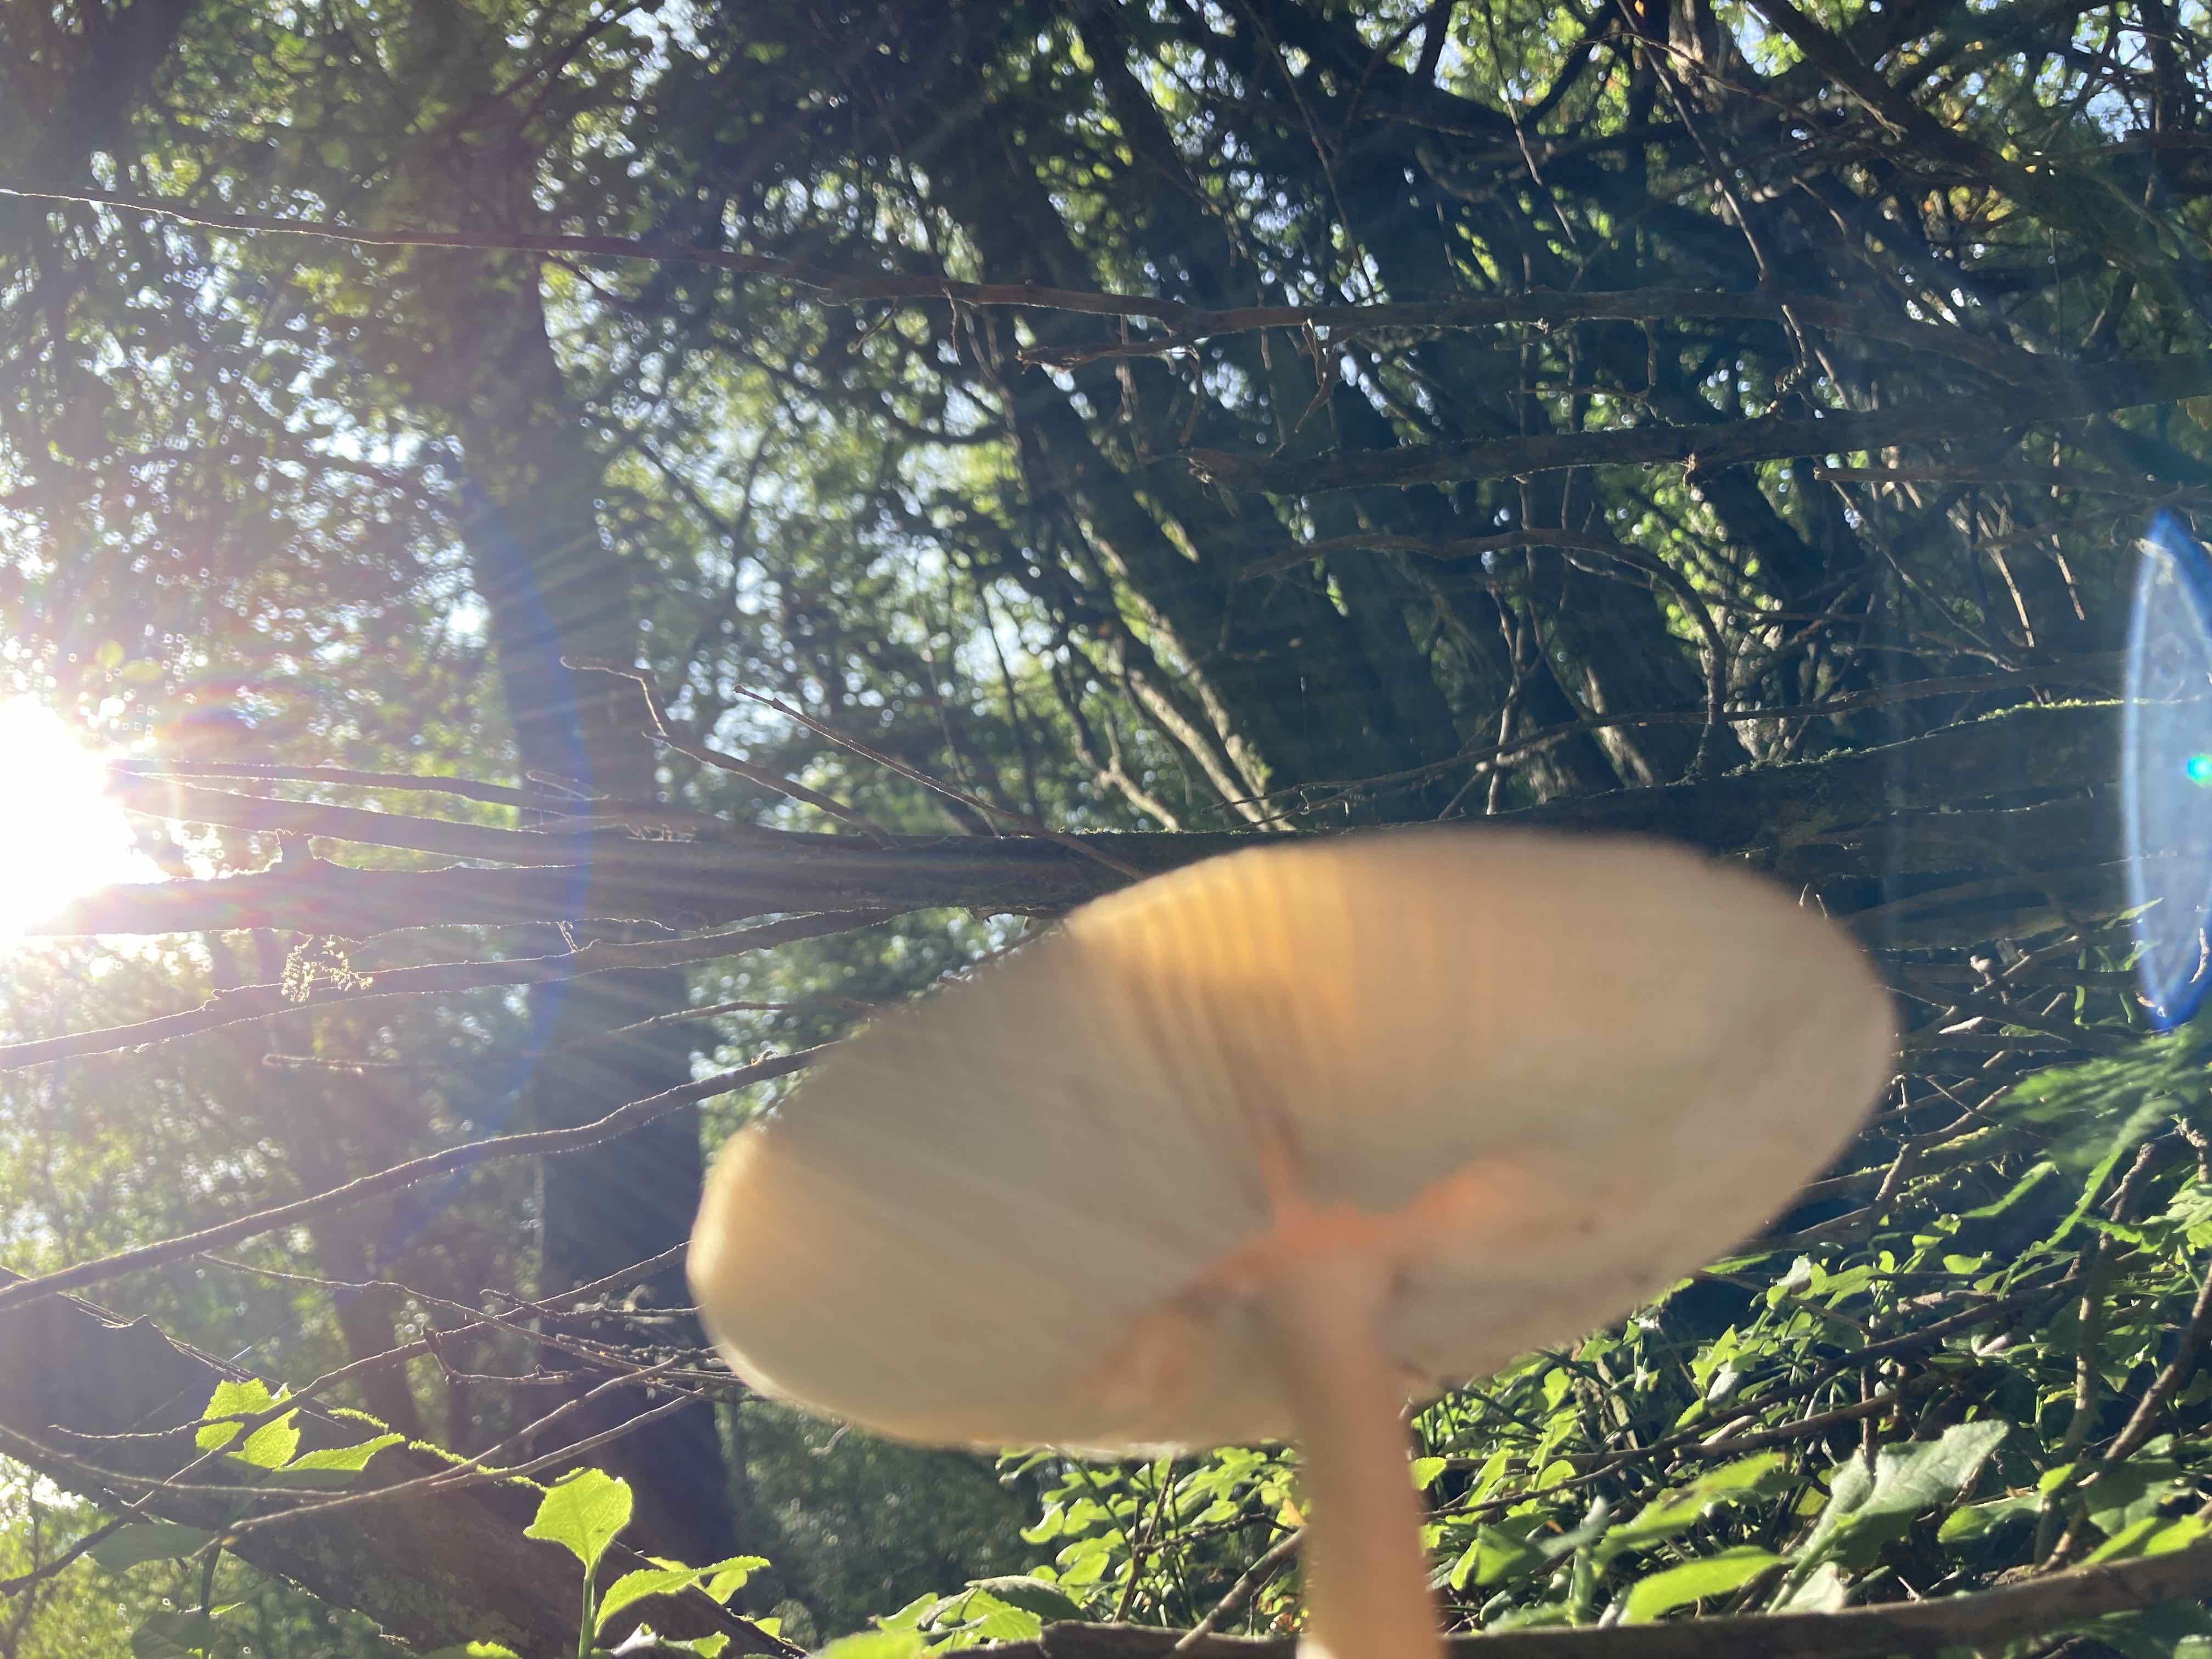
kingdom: Fungi
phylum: Basidiomycota
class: Agaricomycetes
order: Agaricales
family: Amanitaceae
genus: Amanita
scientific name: Amanita fulva
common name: brun kam-fluesvamp
